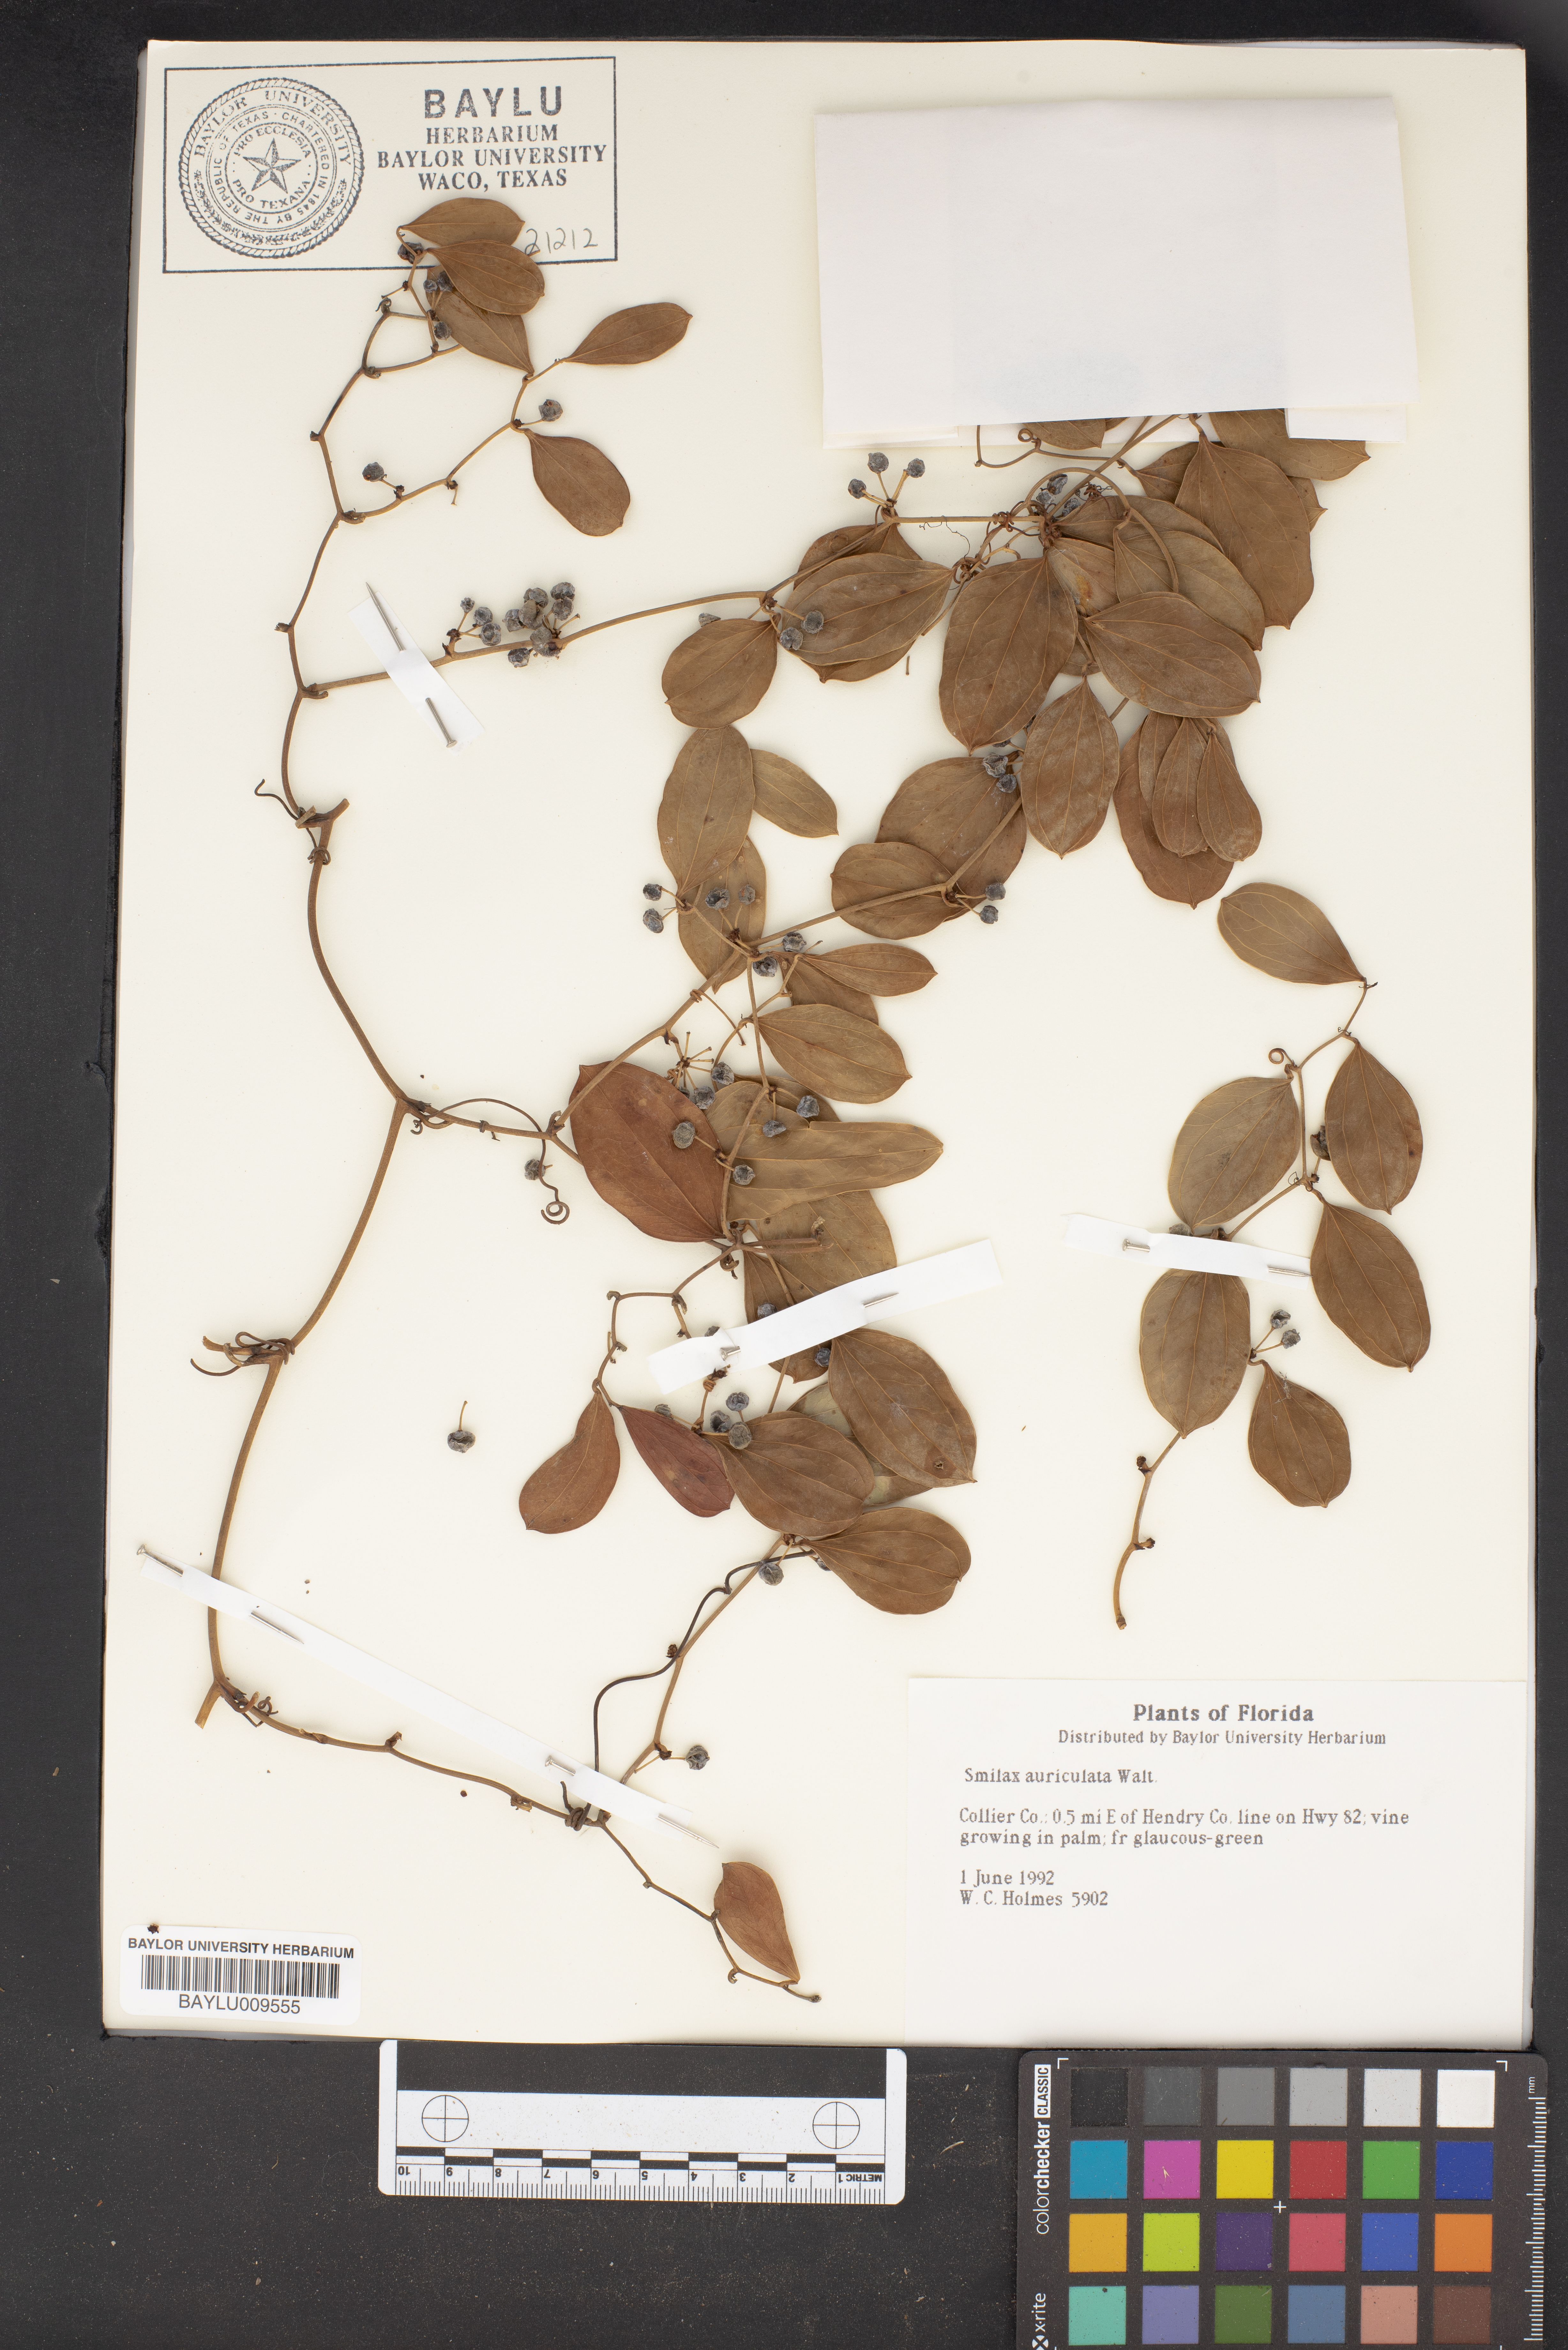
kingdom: Plantae
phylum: Tracheophyta
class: Liliopsida
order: Liliales
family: Smilacaceae
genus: Smilax
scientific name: Smilax auriculata
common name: Wild bamboo
